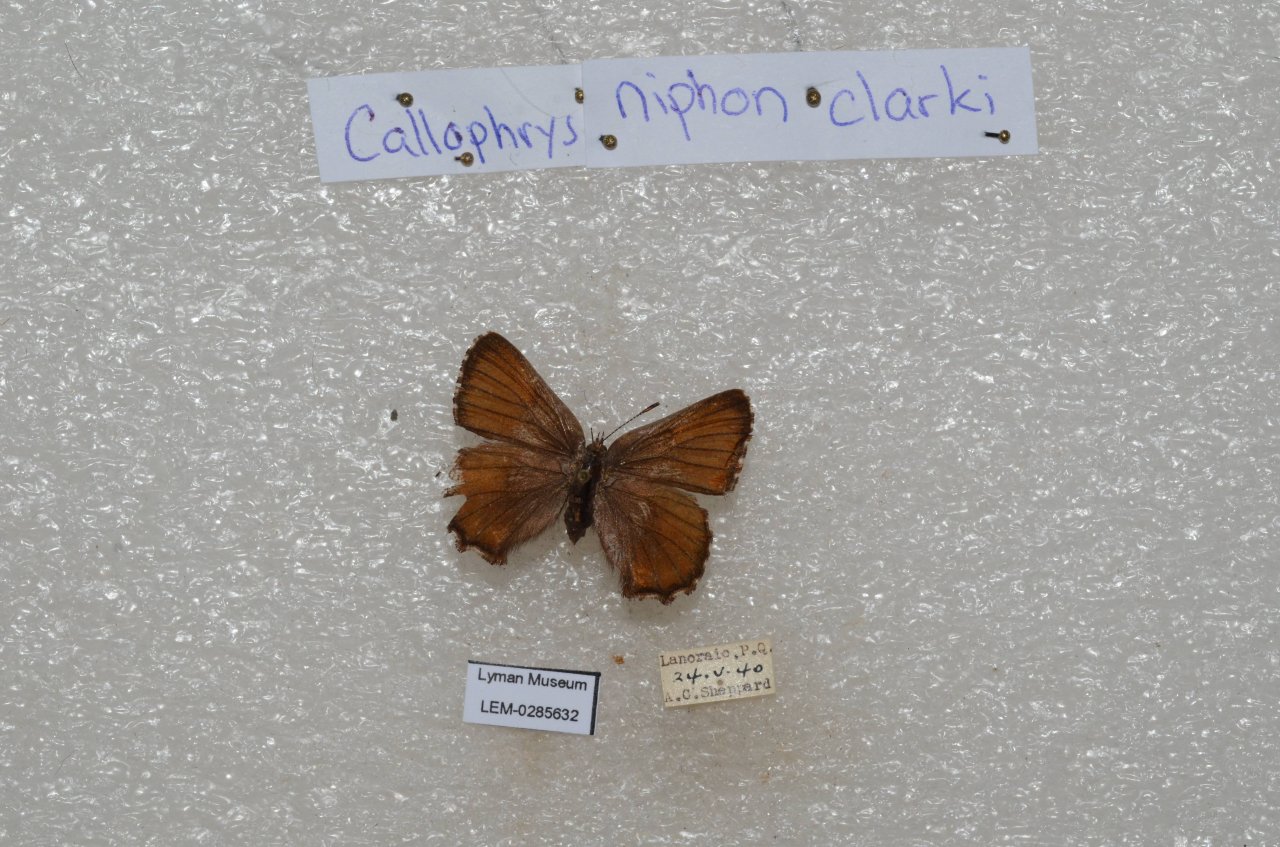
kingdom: Animalia
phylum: Arthropoda
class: Insecta
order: Lepidoptera
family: Lycaenidae
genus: Incisalia
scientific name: Incisalia niphon
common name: Eastern Pine Elfin
